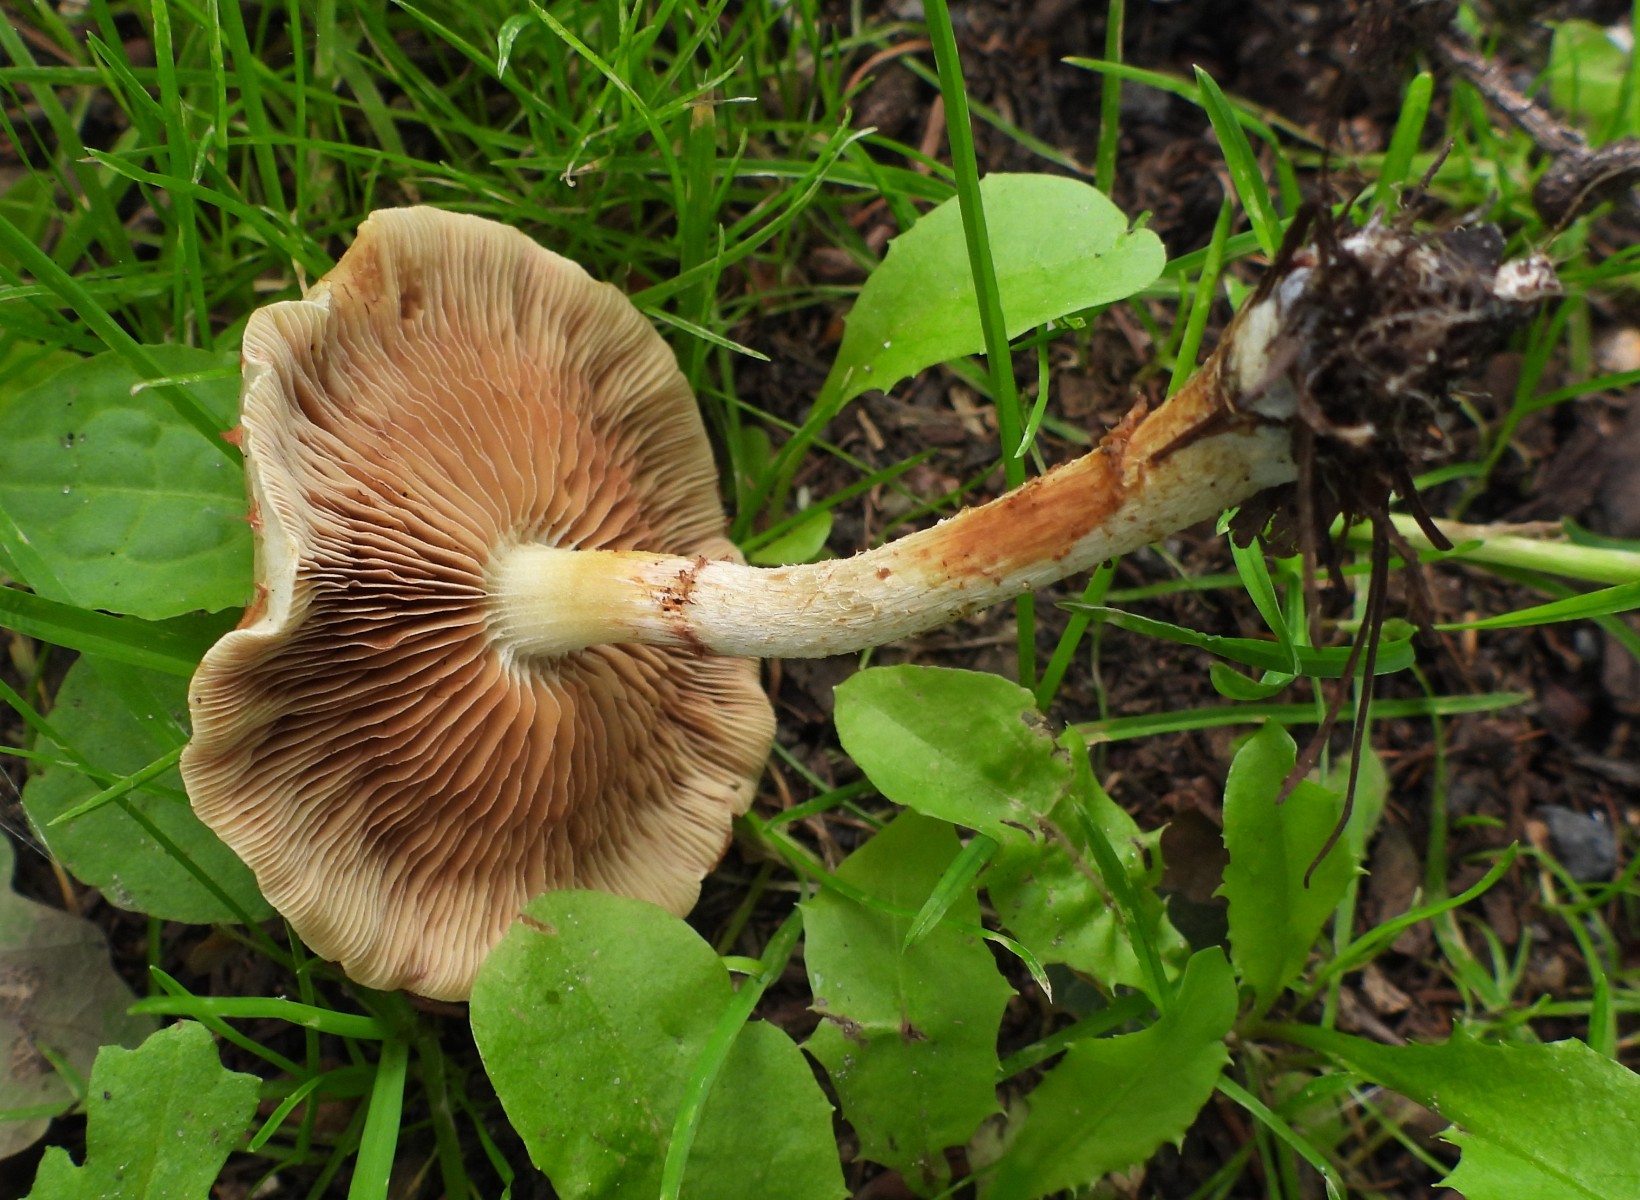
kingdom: Fungi
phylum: Basidiomycota
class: Agaricomycetes
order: Agaricales
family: Strophariaceae
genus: Pholiota
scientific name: Pholiota gummosa
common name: grøngul skælhat
